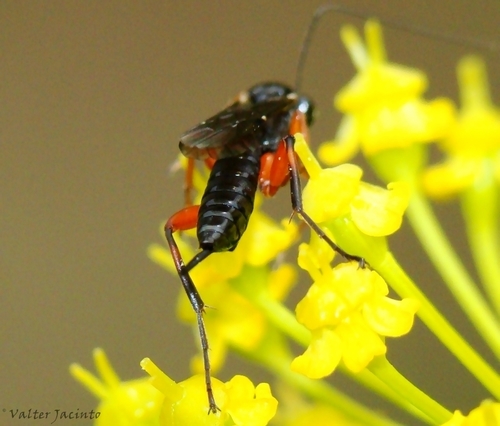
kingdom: Animalia
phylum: Arthropoda
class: Insecta
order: Hymenoptera
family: Ichneumonidae
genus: Exetastes
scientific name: Exetastes fornicator
